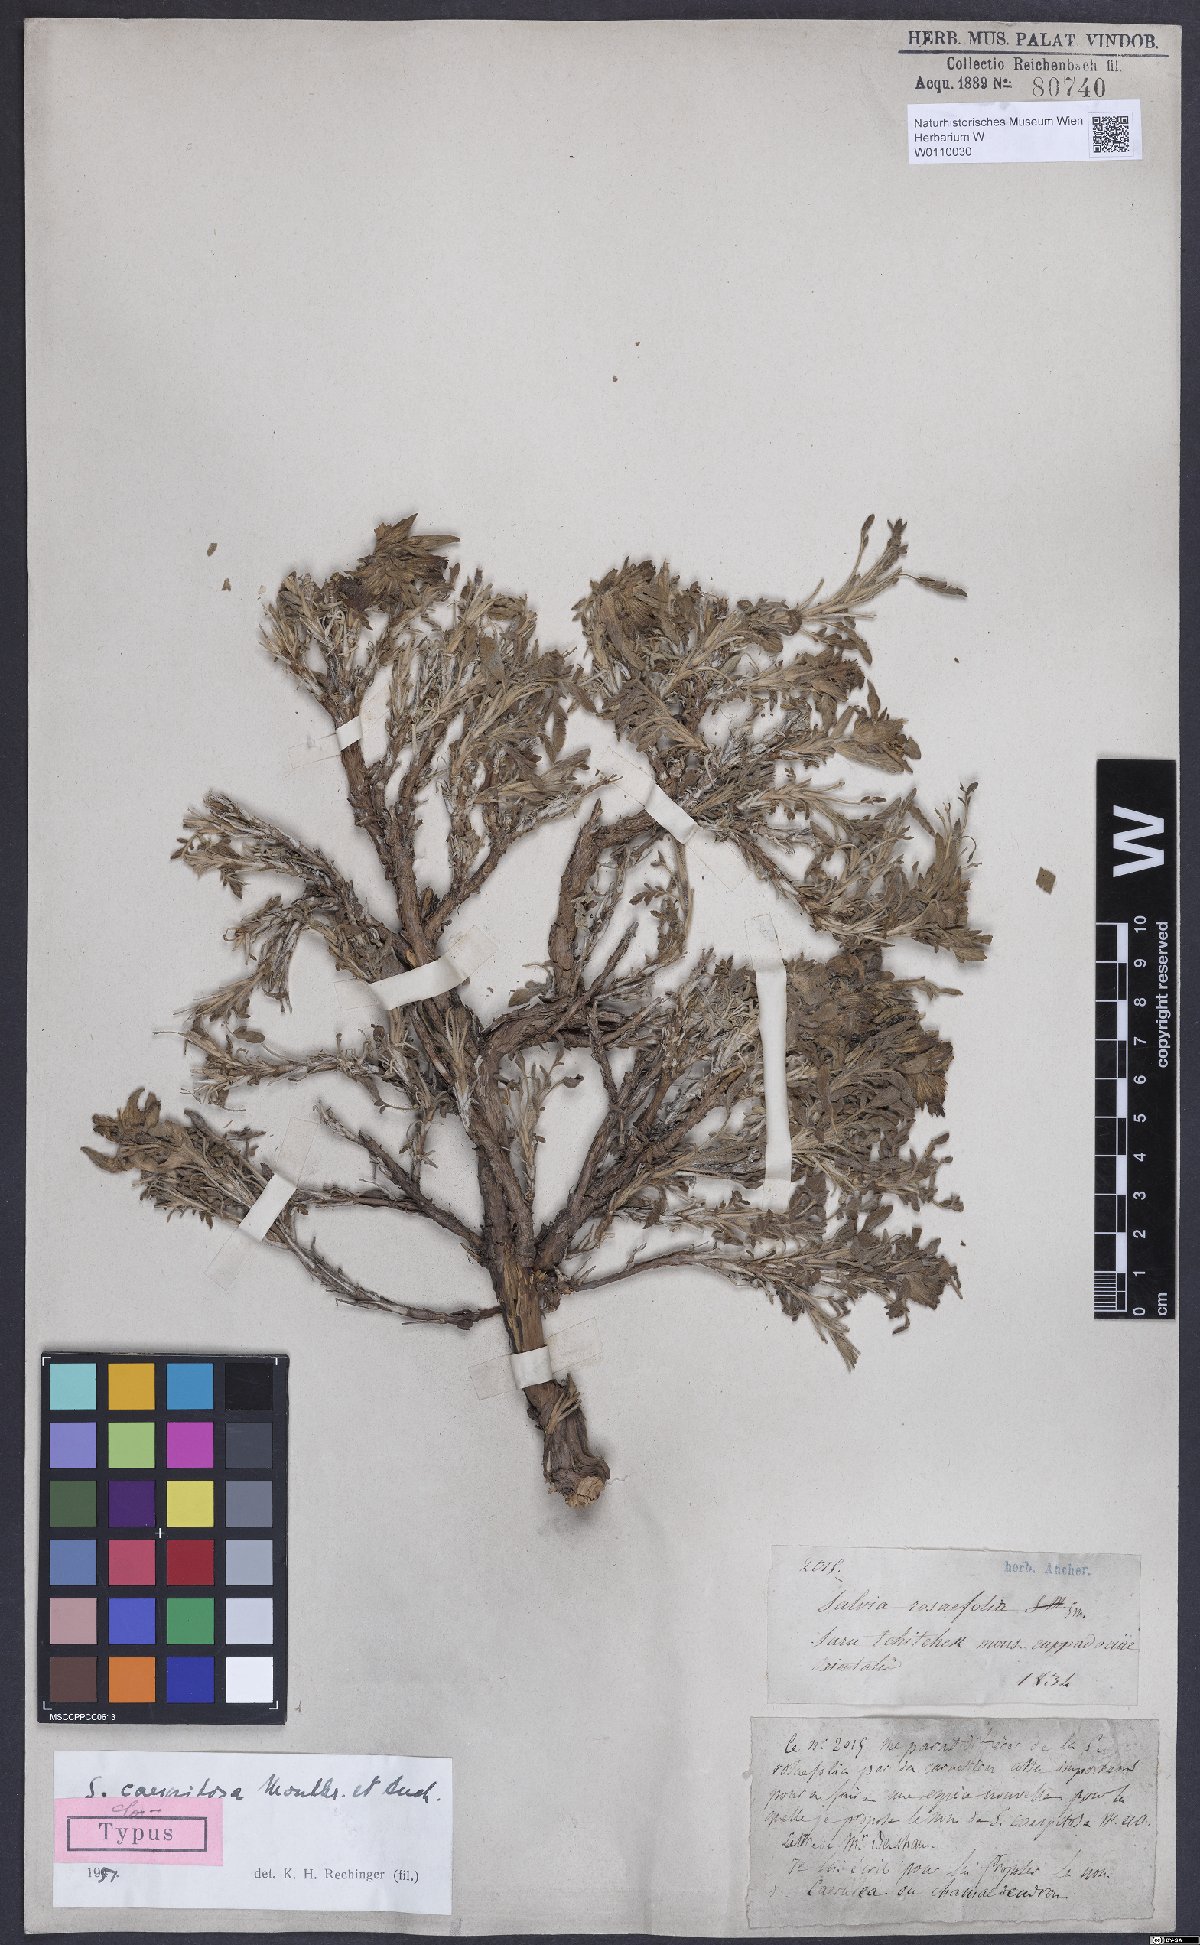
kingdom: Plantae
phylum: Tracheophyta
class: Magnoliopsida
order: Lamiales
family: Lamiaceae
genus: Salvia
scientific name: Salvia caespitosa
